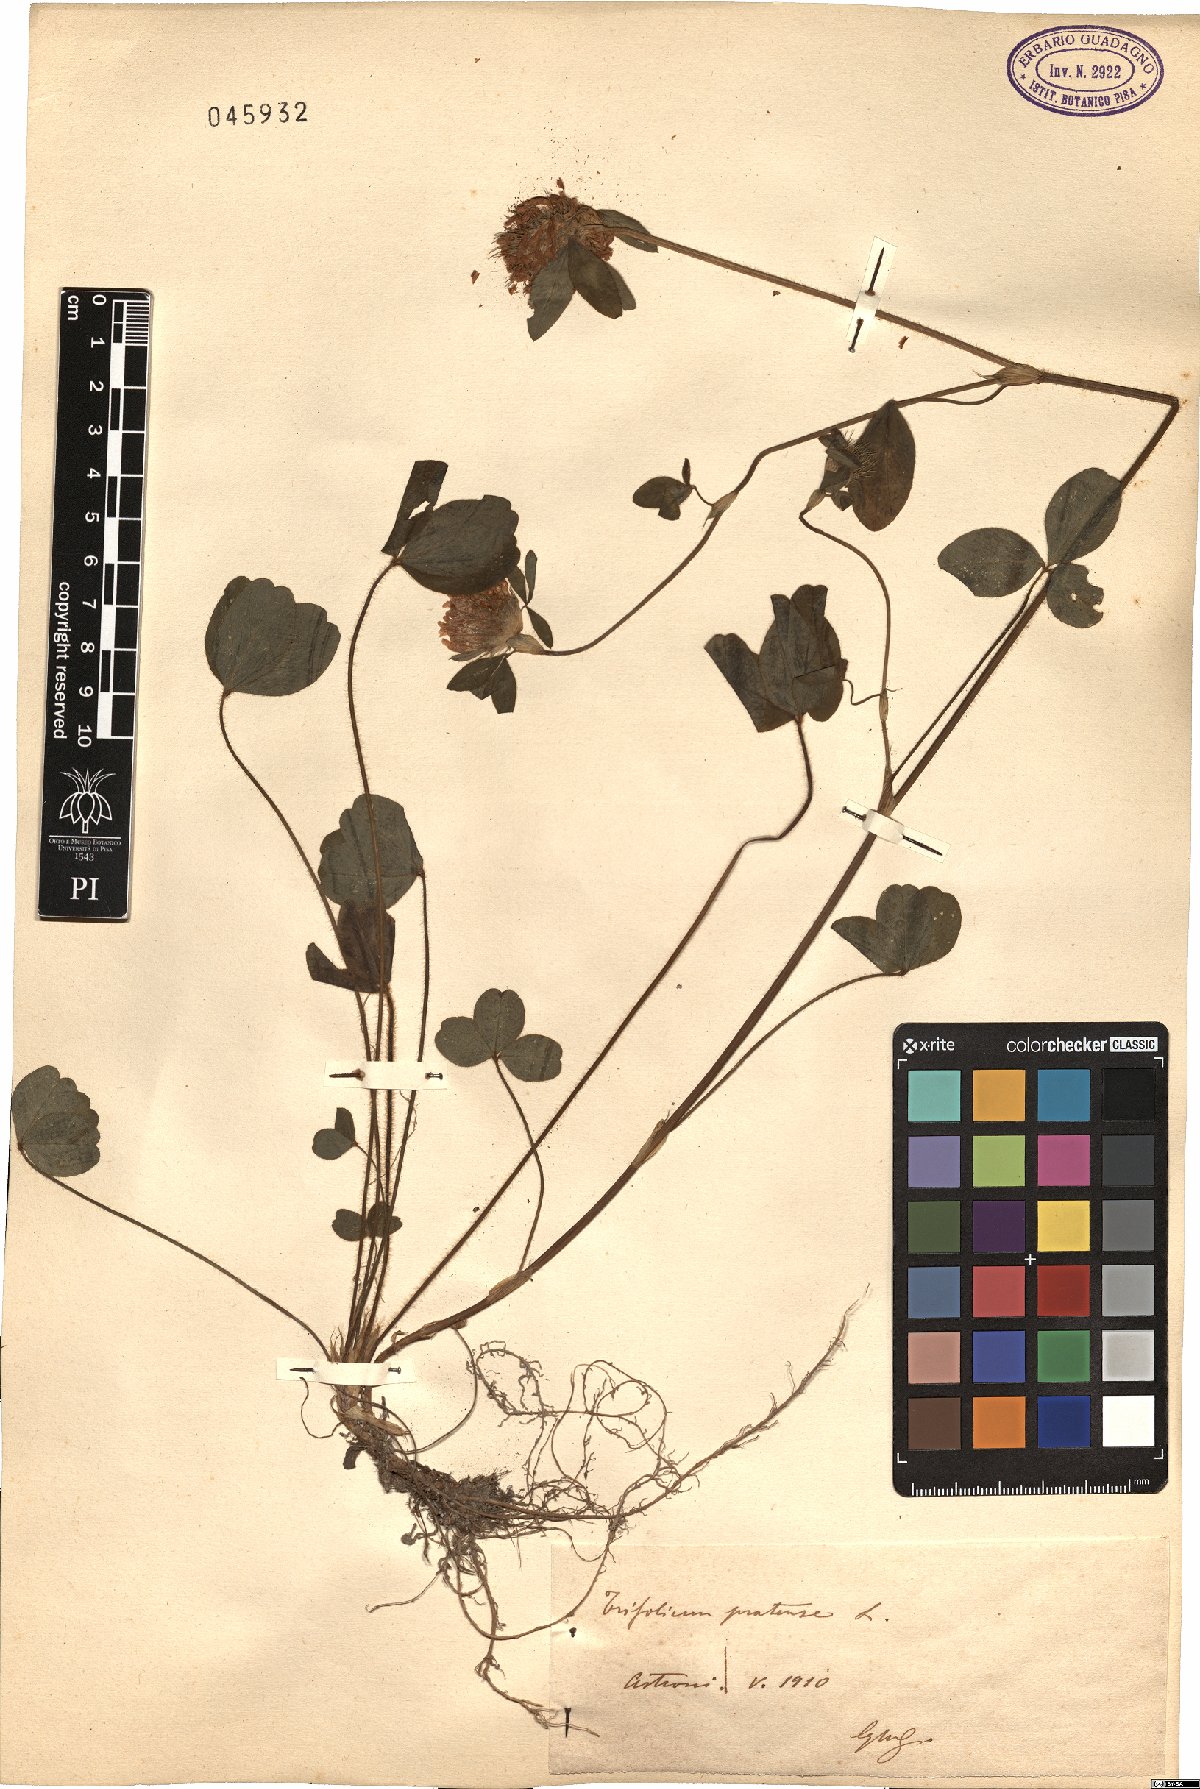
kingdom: Plantae
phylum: Tracheophyta
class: Magnoliopsida
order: Fabales
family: Fabaceae
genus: Trifolium
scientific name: Trifolium pratense
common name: Red clover
